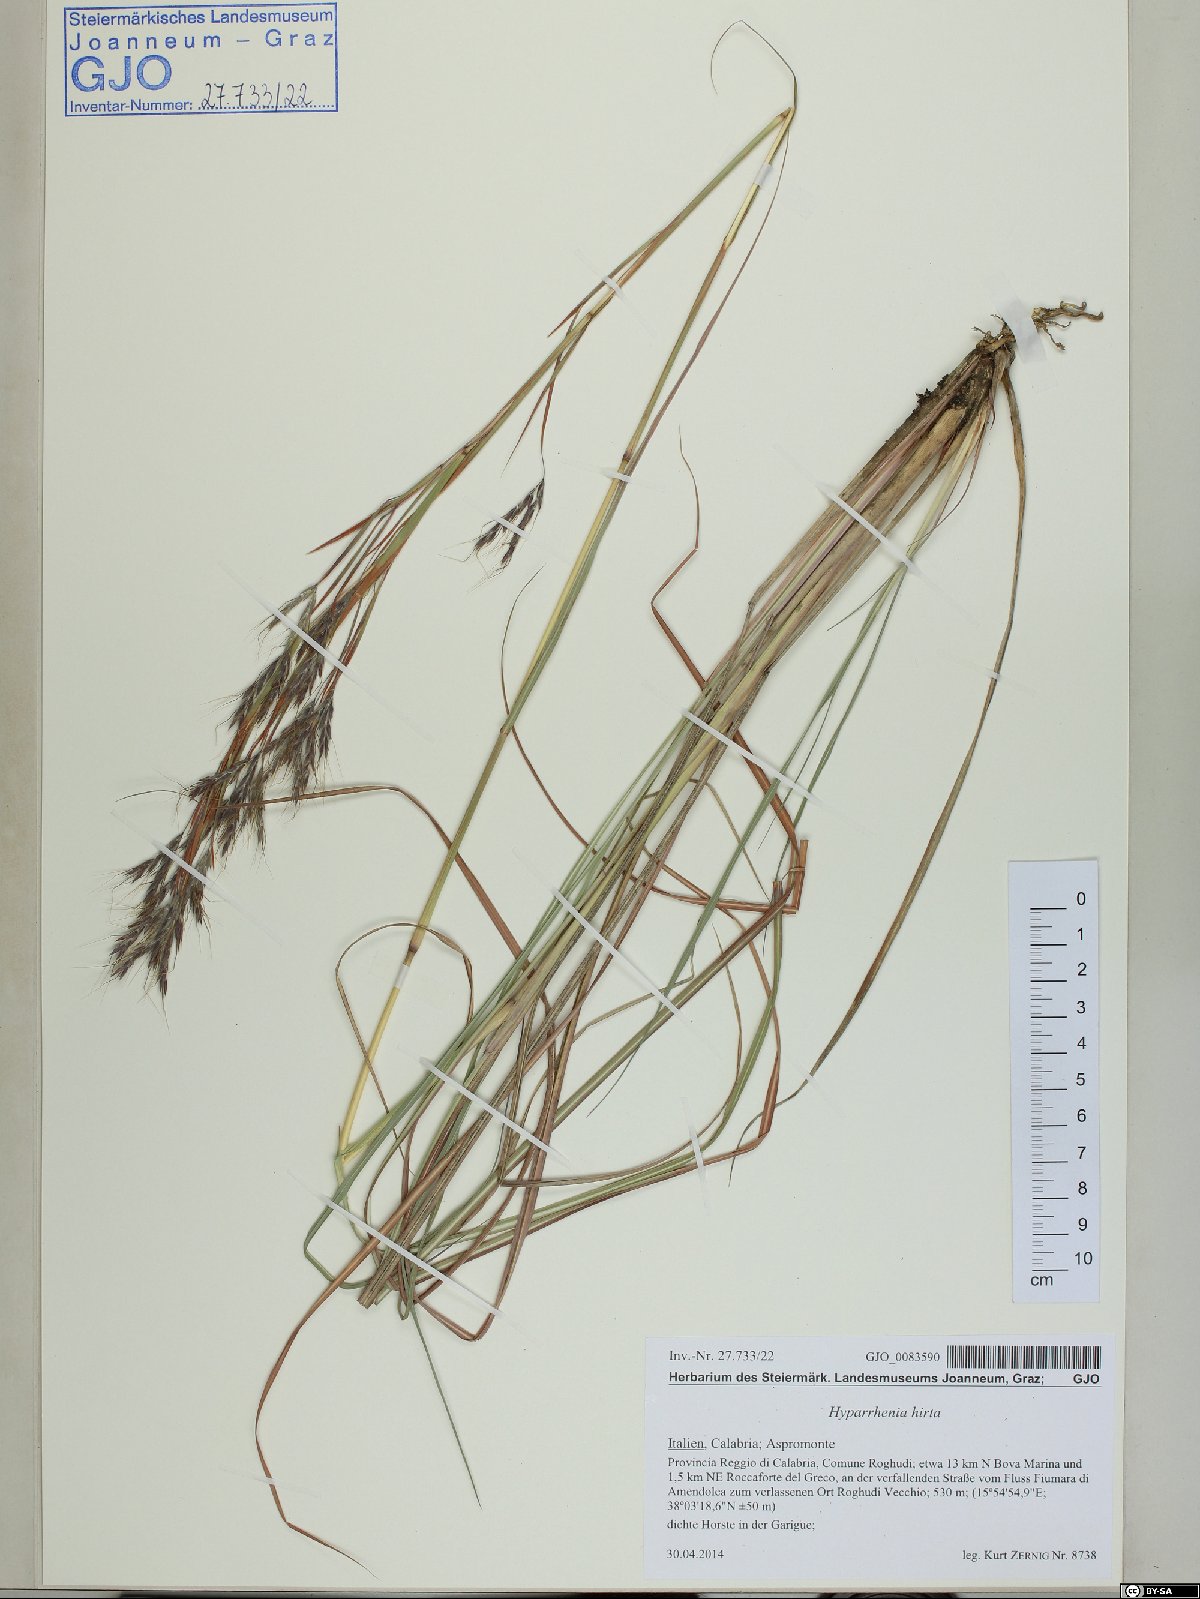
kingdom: Plantae
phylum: Tracheophyta
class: Liliopsida
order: Poales
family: Poaceae
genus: Hyparrhenia
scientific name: Hyparrhenia hirta
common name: Thatching grass
